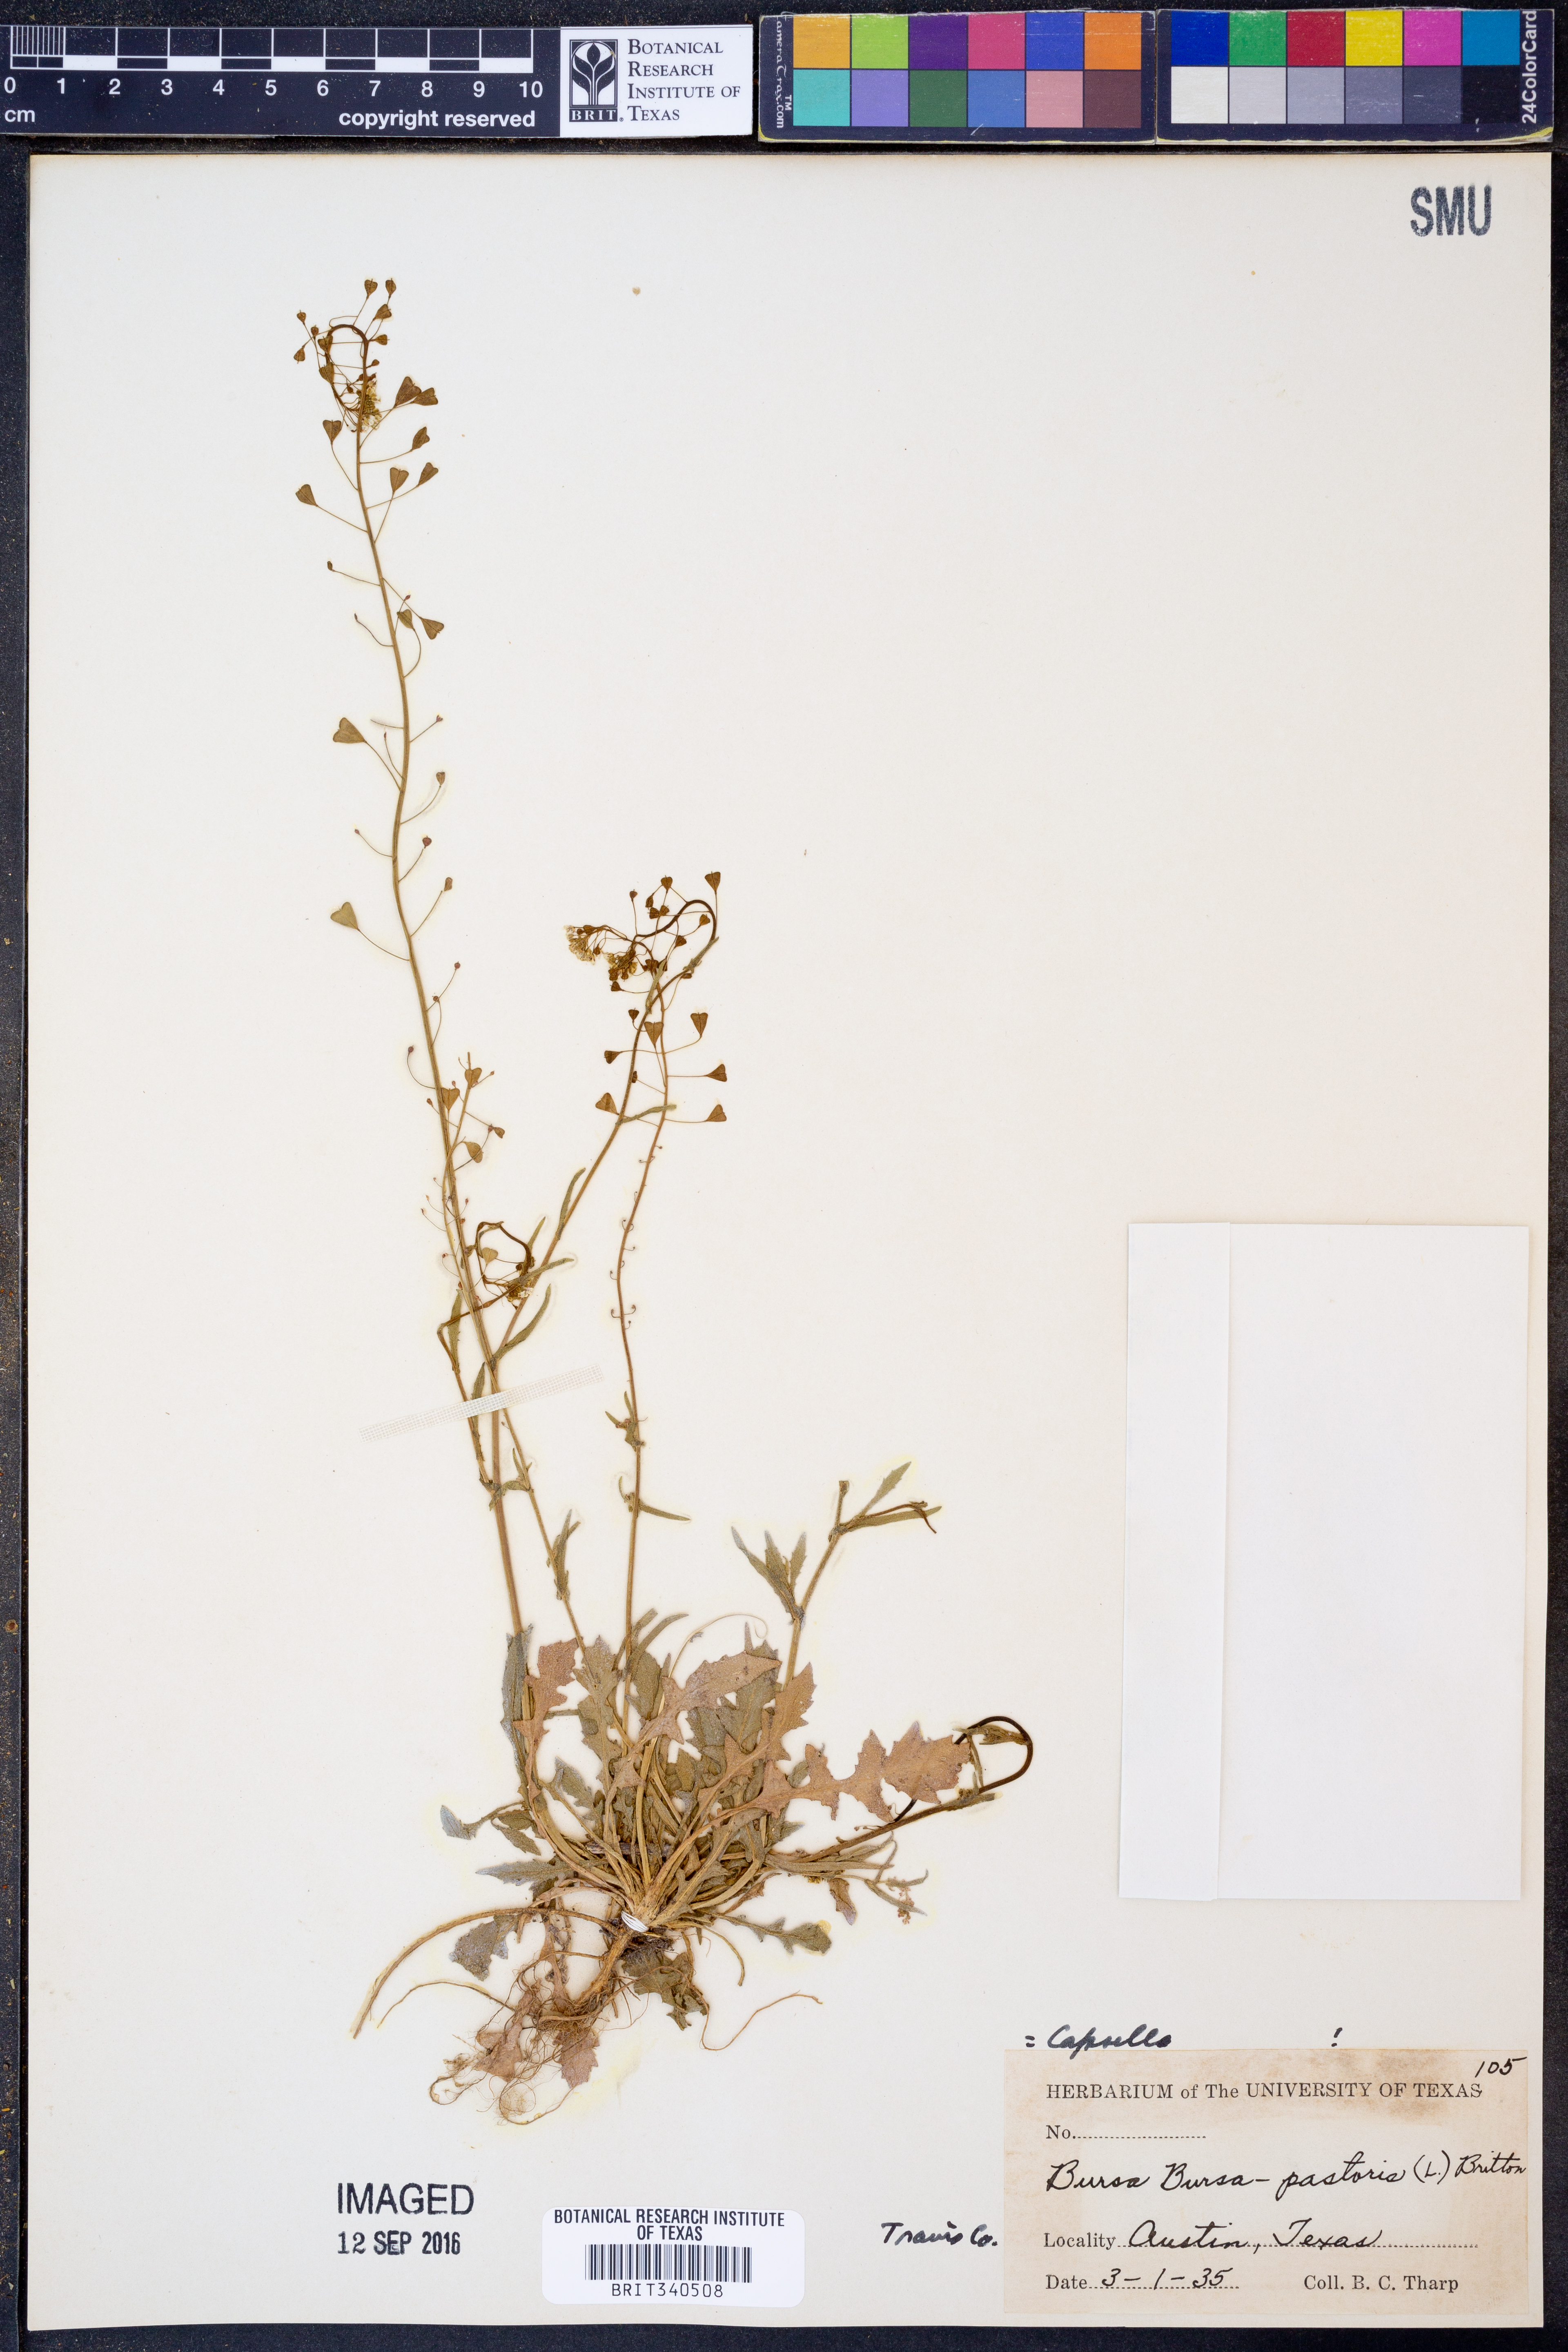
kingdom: Plantae
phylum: Tracheophyta
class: Magnoliopsida
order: Brassicales
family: Brassicaceae
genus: Capsella
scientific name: Capsella bursa-pastoris
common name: Shepherd's purse
